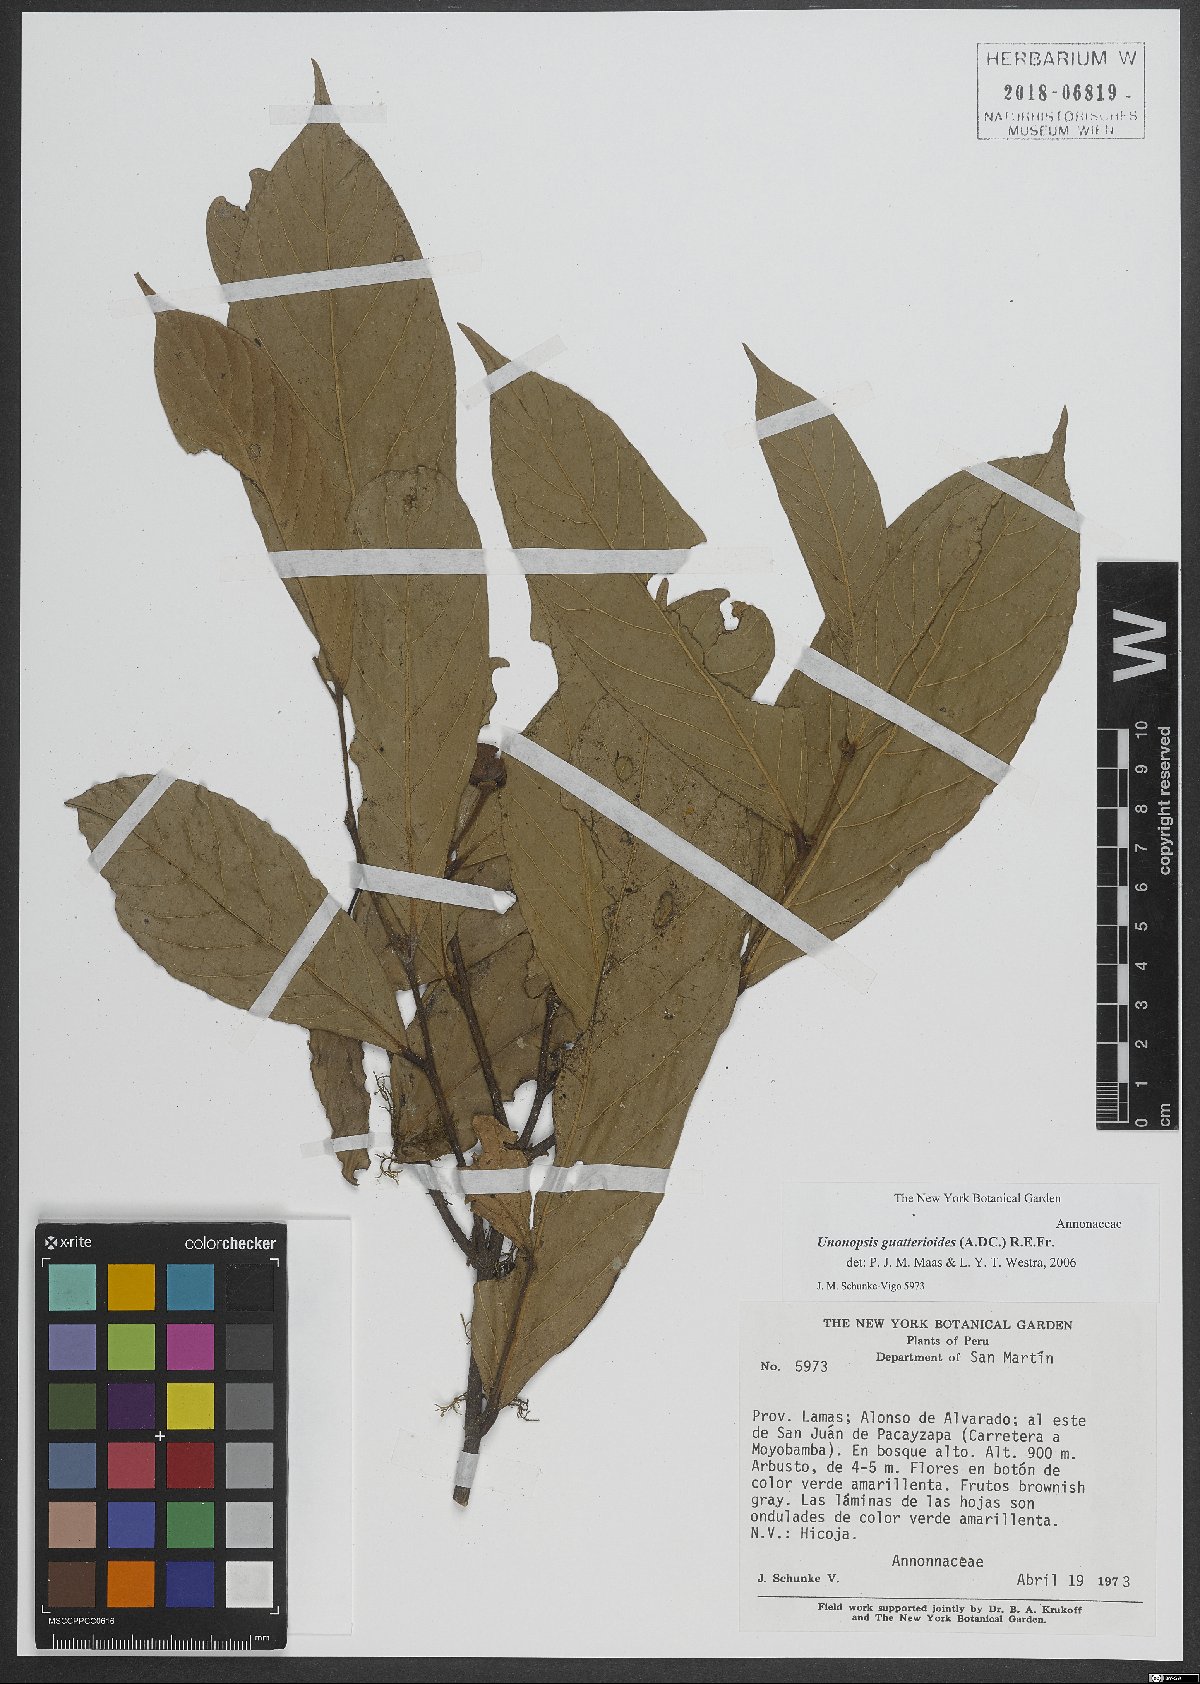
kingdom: Plantae
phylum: Tracheophyta
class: Magnoliopsida
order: Magnoliales
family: Annonaceae
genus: Unonopsis
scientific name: Unonopsis guatterioides
